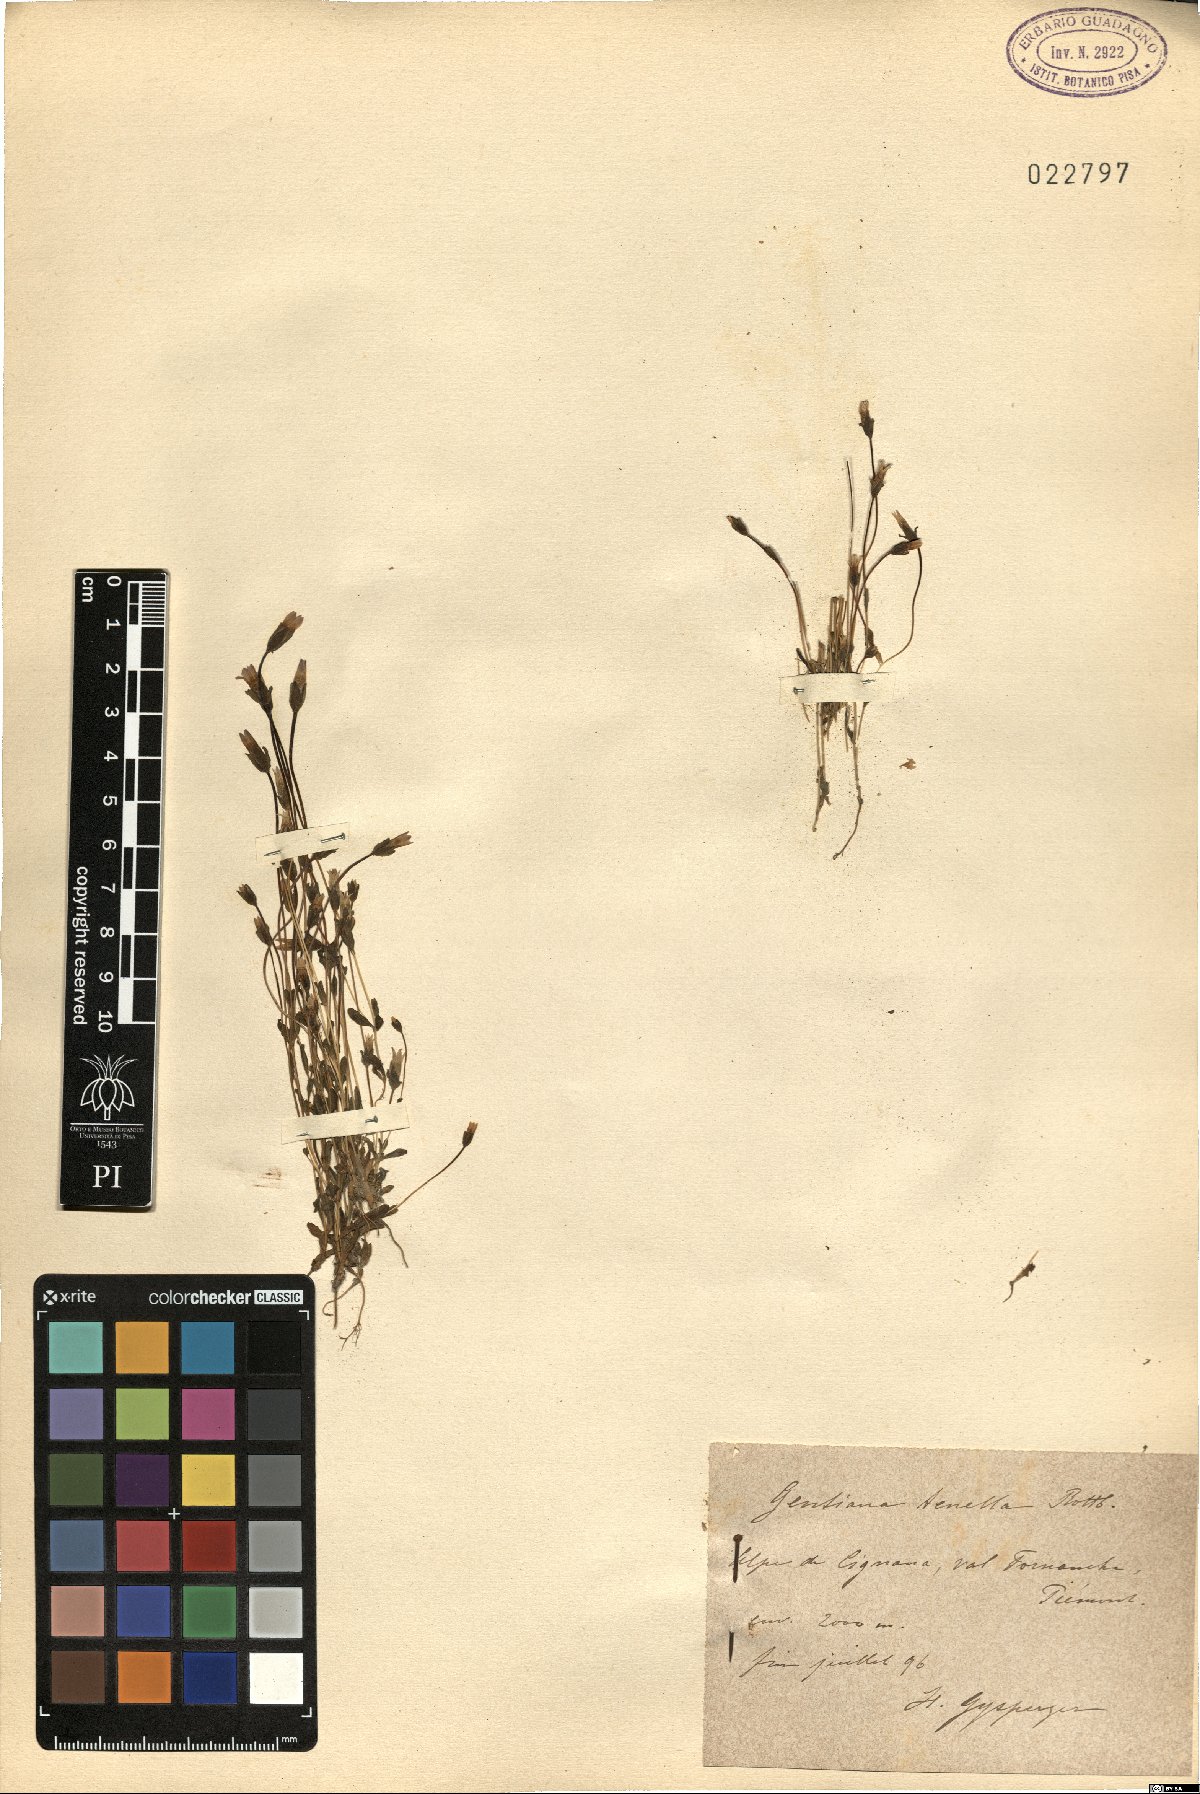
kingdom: Plantae
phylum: Tracheophyta
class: Magnoliopsida
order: Gentianales
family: Gentianaceae
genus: Comastoma
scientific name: Comastoma tenellum
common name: Dane's dwarf gentian
